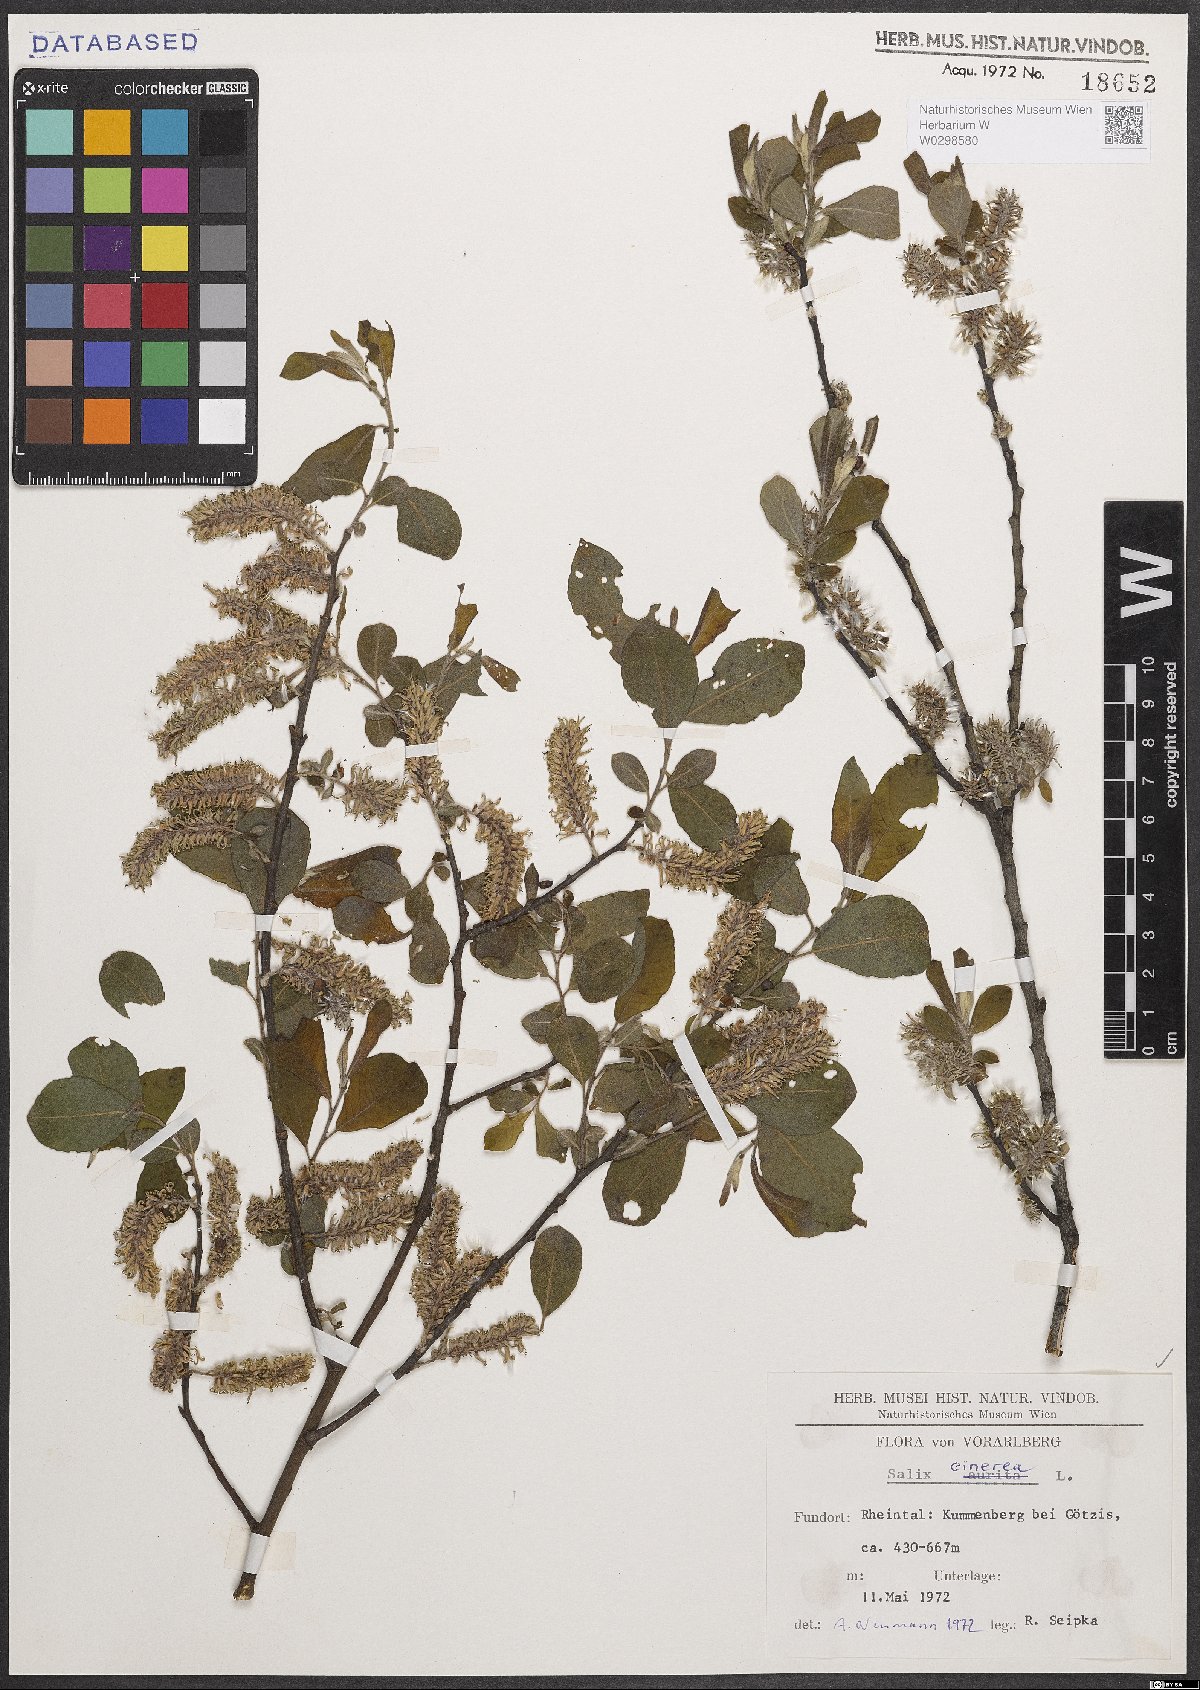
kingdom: Plantae
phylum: Tracheophyta
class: Magnoliopsida
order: Malpighiales
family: Salicaceae
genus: Salix
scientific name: Salix cinerea
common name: Common sallow
